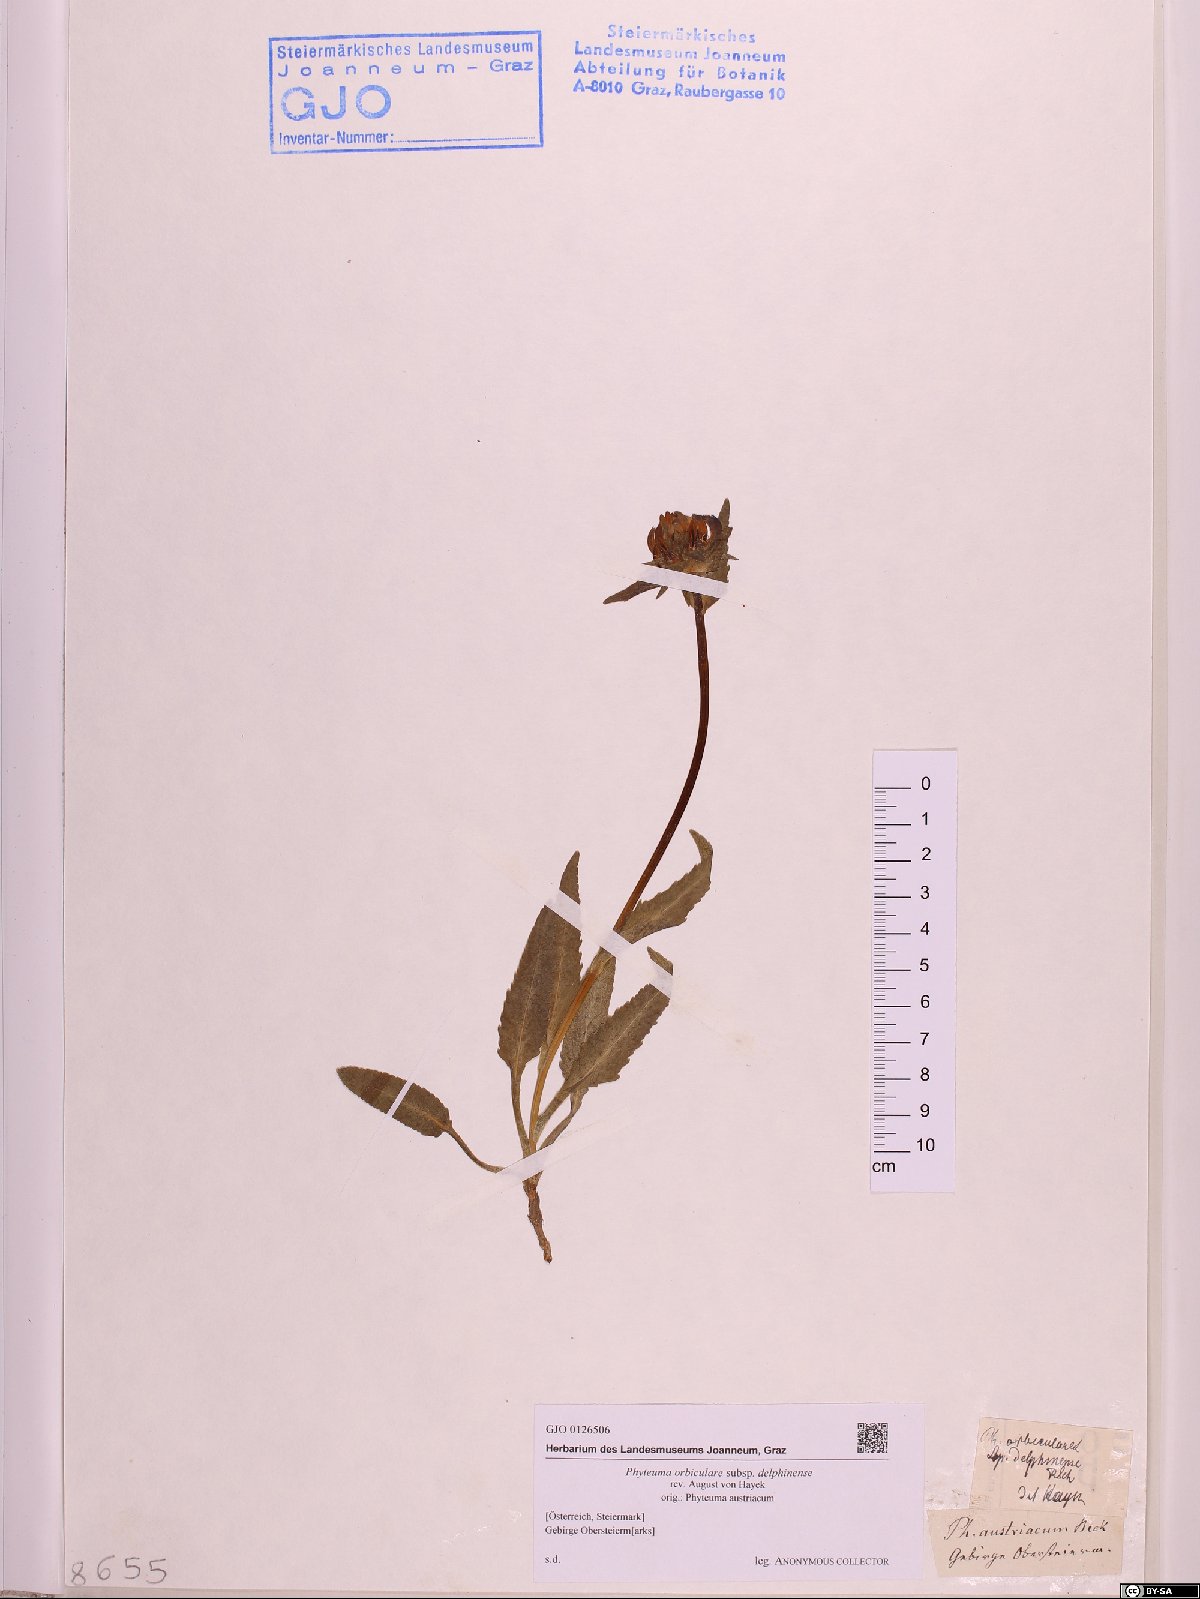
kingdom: Plantae
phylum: Tracheophyta
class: Magnoliopsida
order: Asterales
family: Campanulaceae
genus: Phyteuma
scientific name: Phyteuma orbiculare
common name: Round-headed rampion
